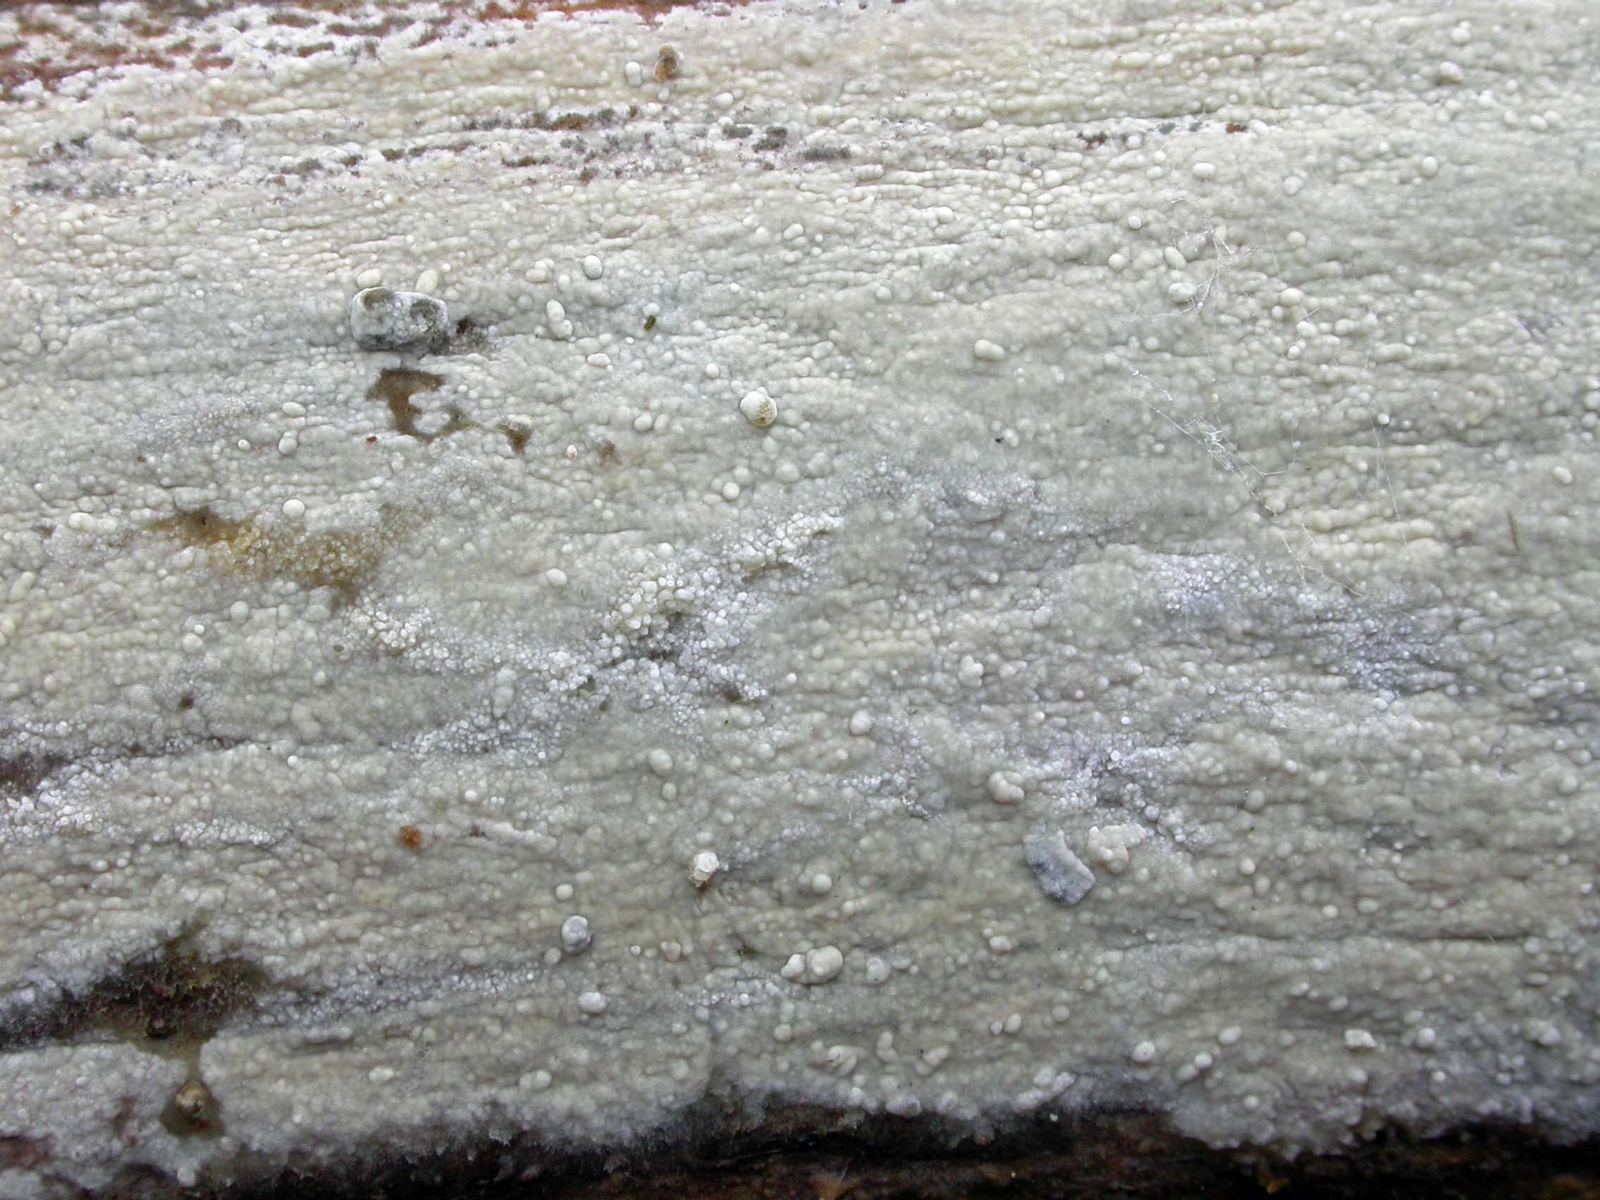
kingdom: Fungi
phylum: Basidiomycota
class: Agaricomycetes
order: Russulales
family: Stereaceae
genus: Gloeocystidiellum
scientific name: Gloeocystidiellum porosum
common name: mælkehvid olieskind
